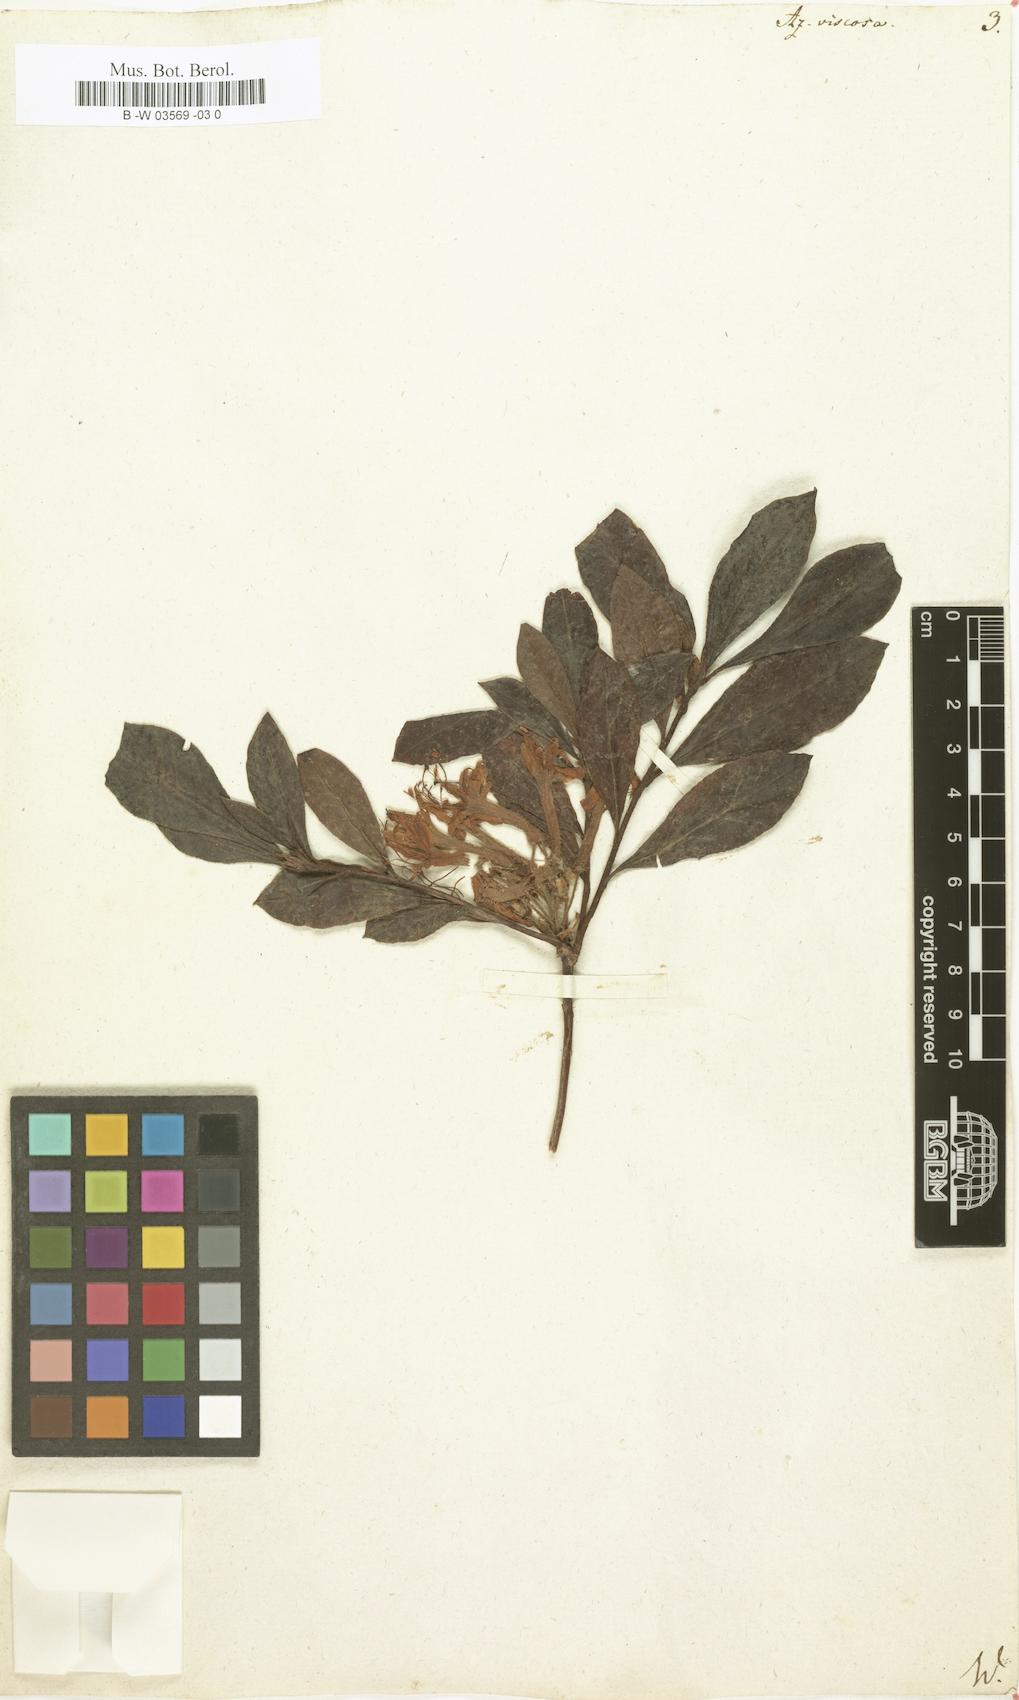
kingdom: Plantae
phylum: Tracheophyta
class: Magnoliopsida
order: Ericales
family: Ericaceae
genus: Rhododendron
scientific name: Rhododendron viscosum
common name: Clammy azalea
